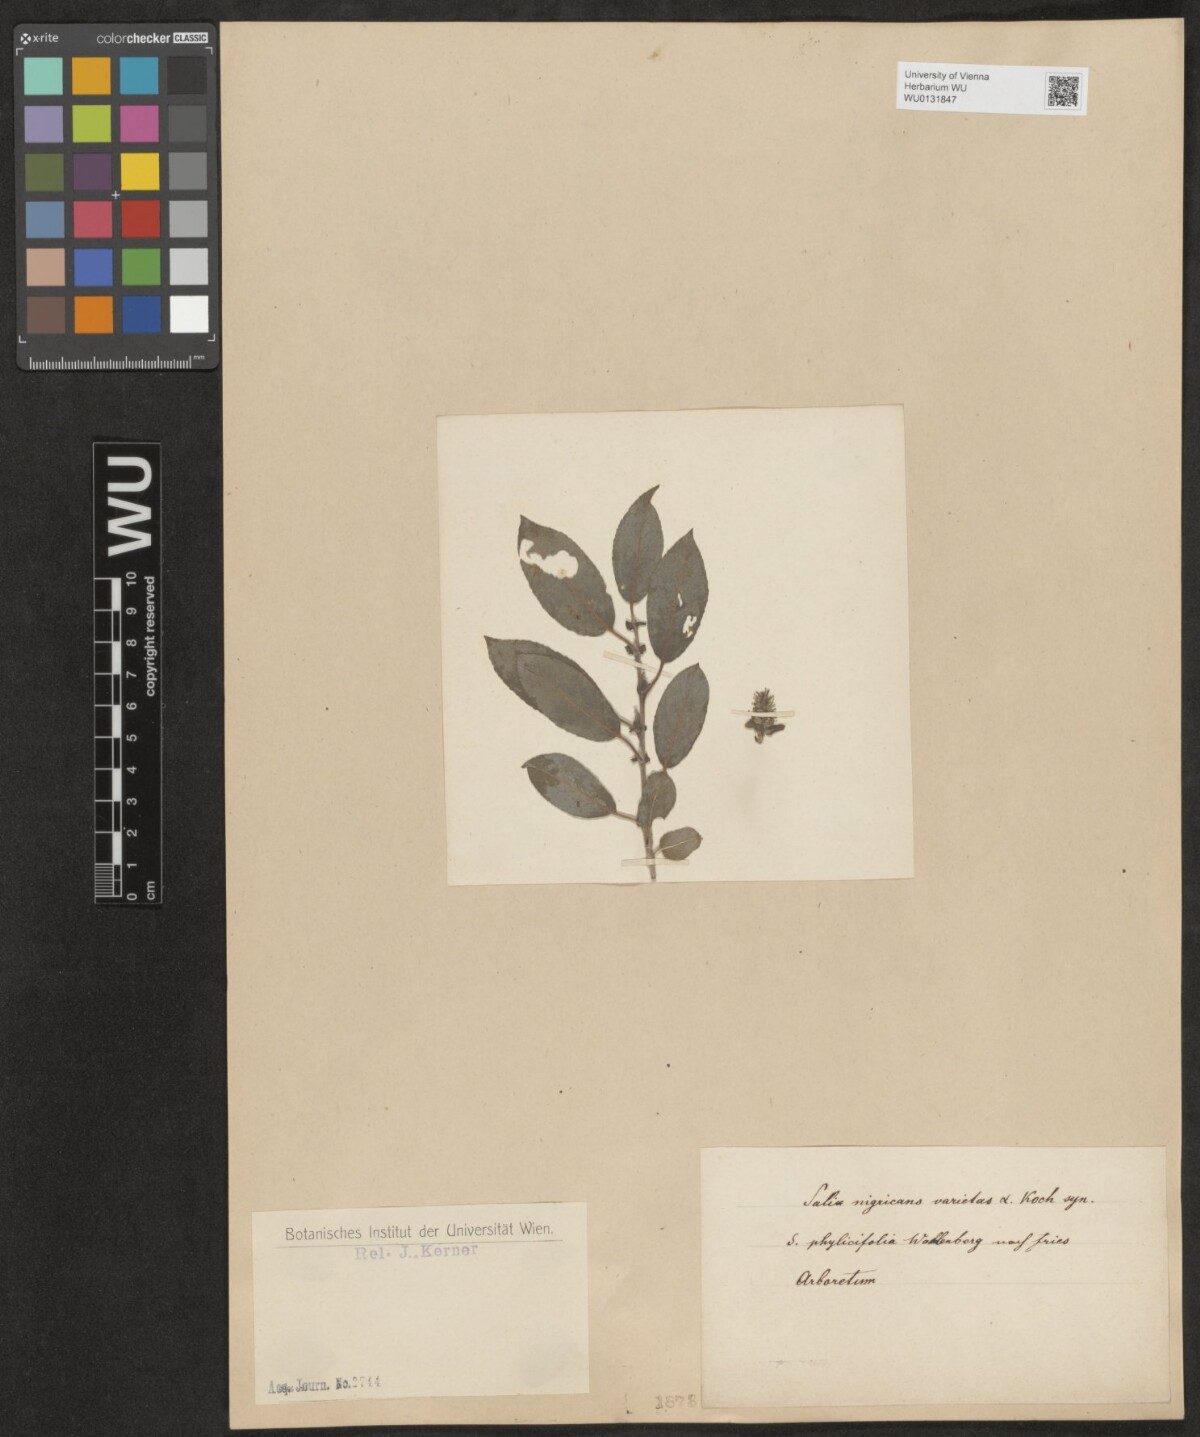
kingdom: Plantae
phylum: Tracheophyta
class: Magnoliopsida
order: Malpighiales
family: Salicaceae
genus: Salix
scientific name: Salix myrsinifolia
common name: Dark-leaved willow
